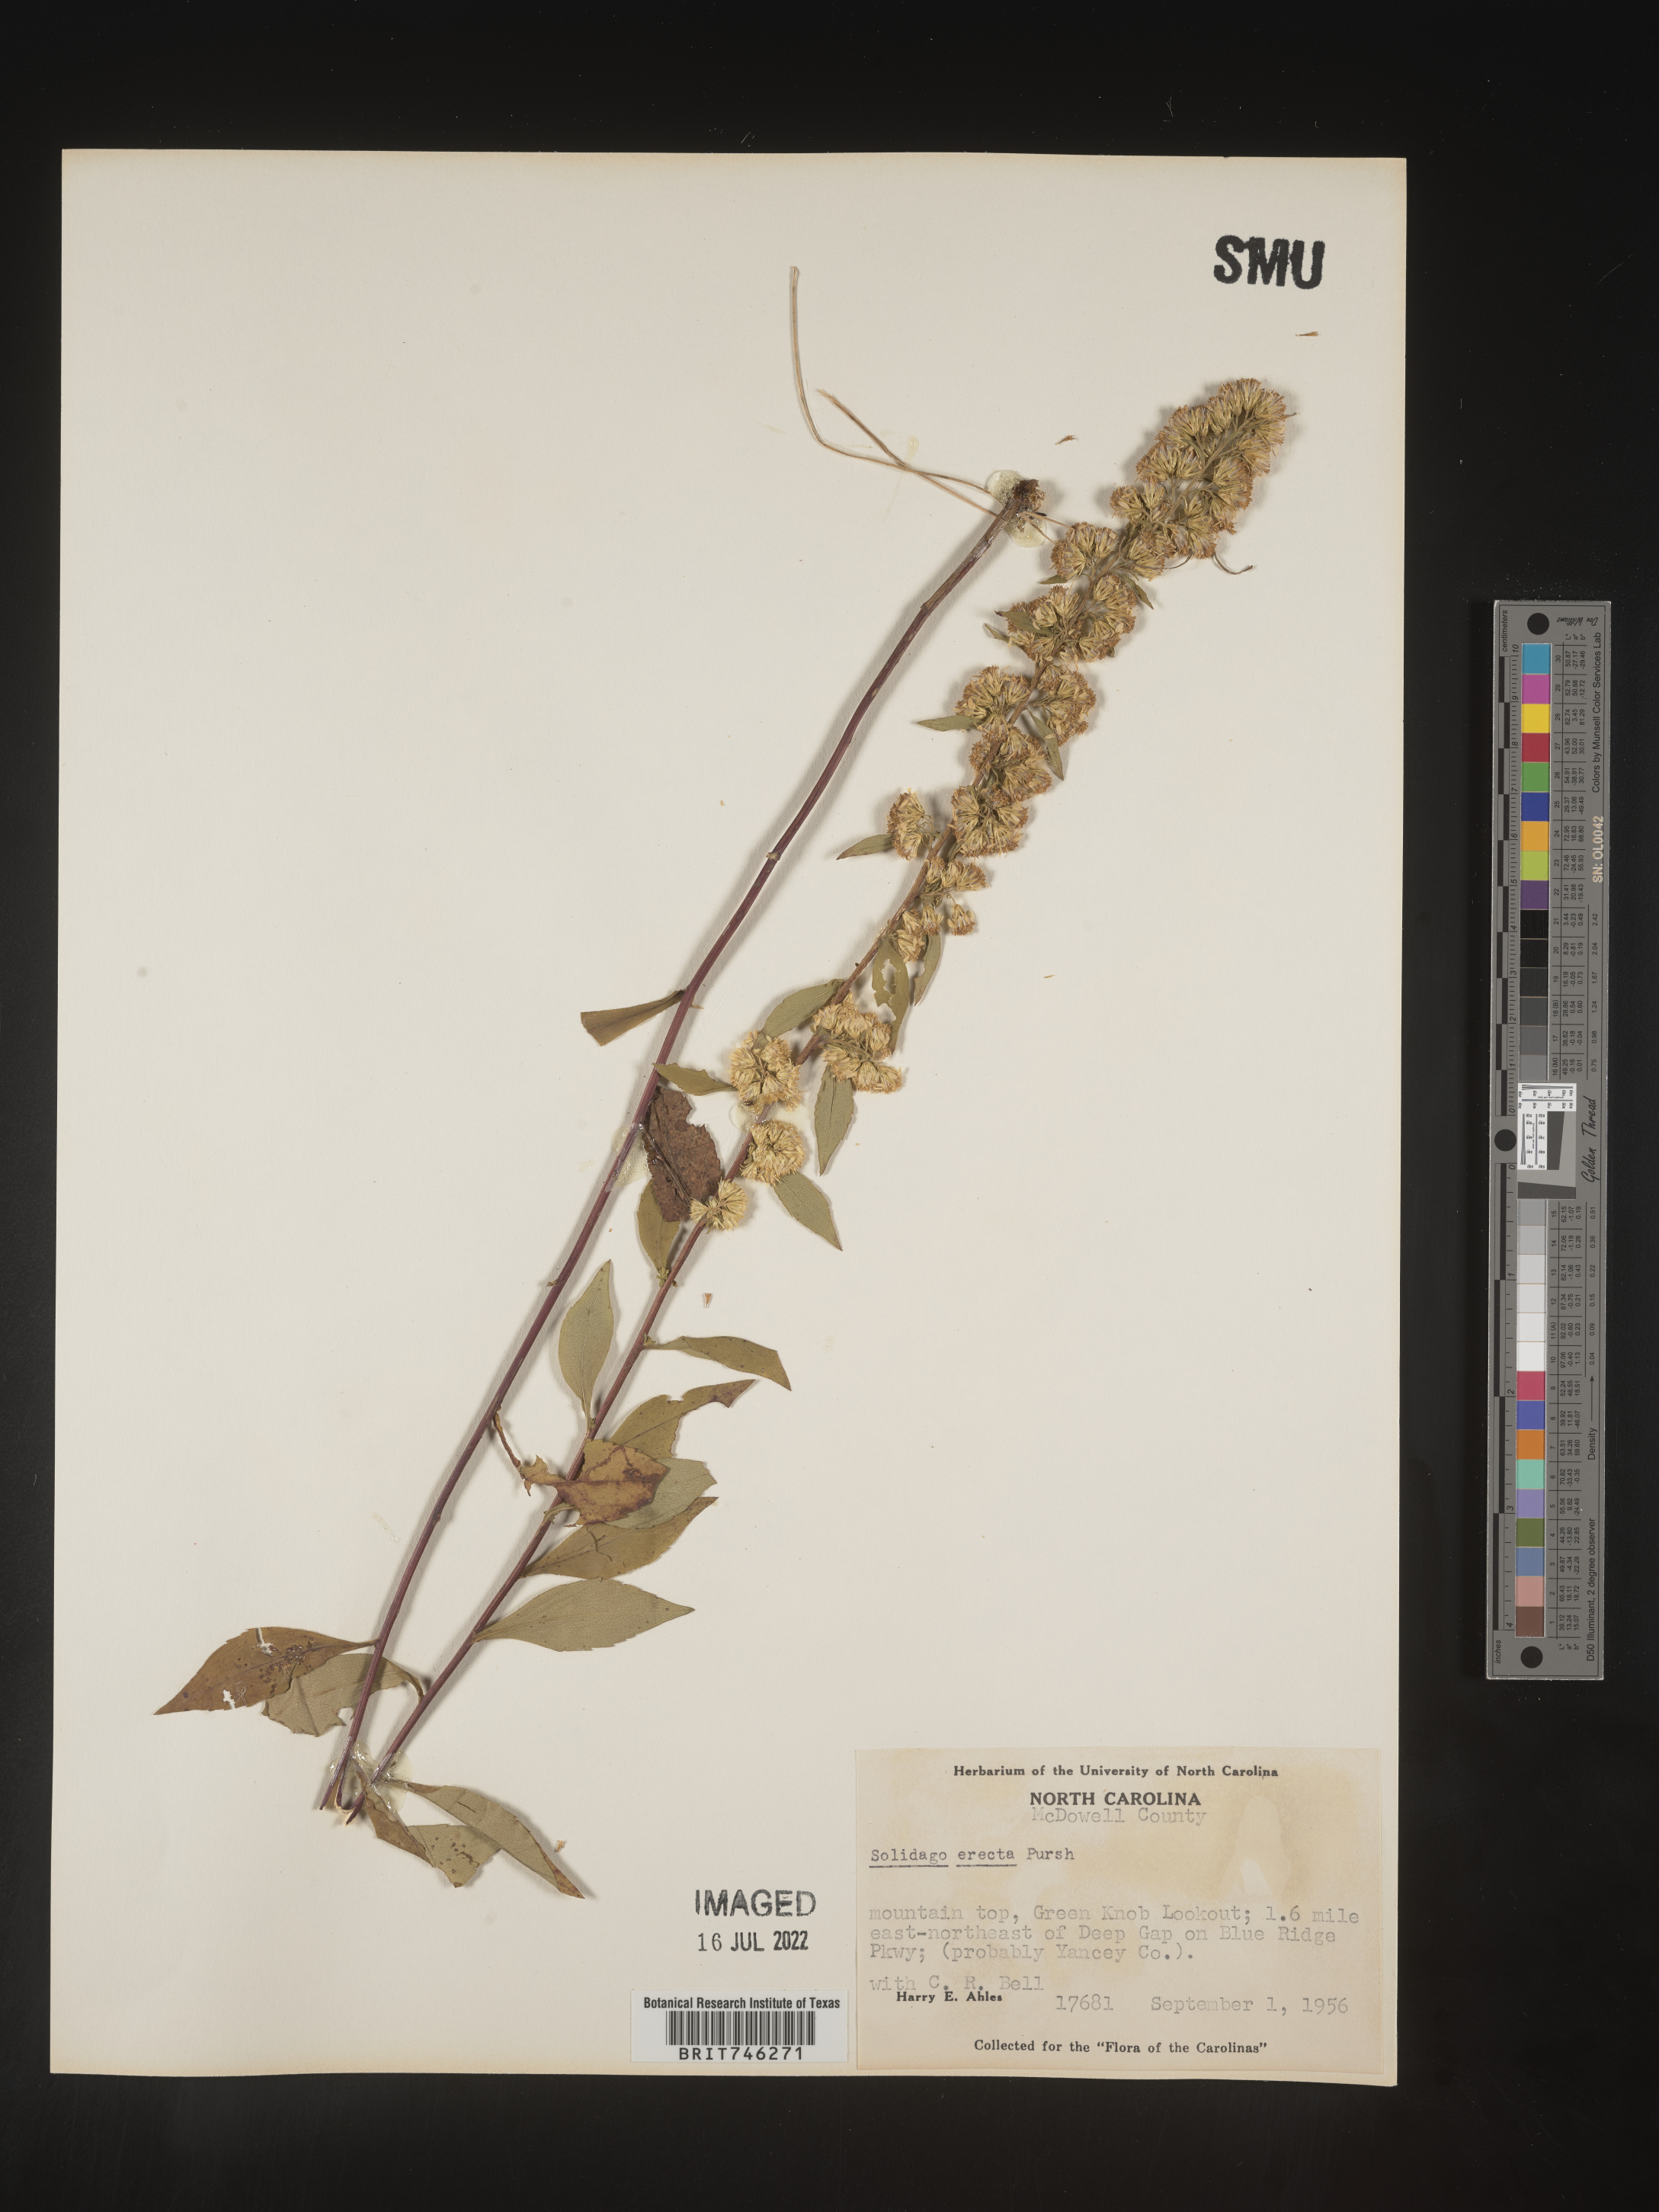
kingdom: Plantae
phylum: Tracheophyta
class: Magnoliopsida
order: Asterales
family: Asteraceae
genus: Solidago
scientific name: Solidago erecta
